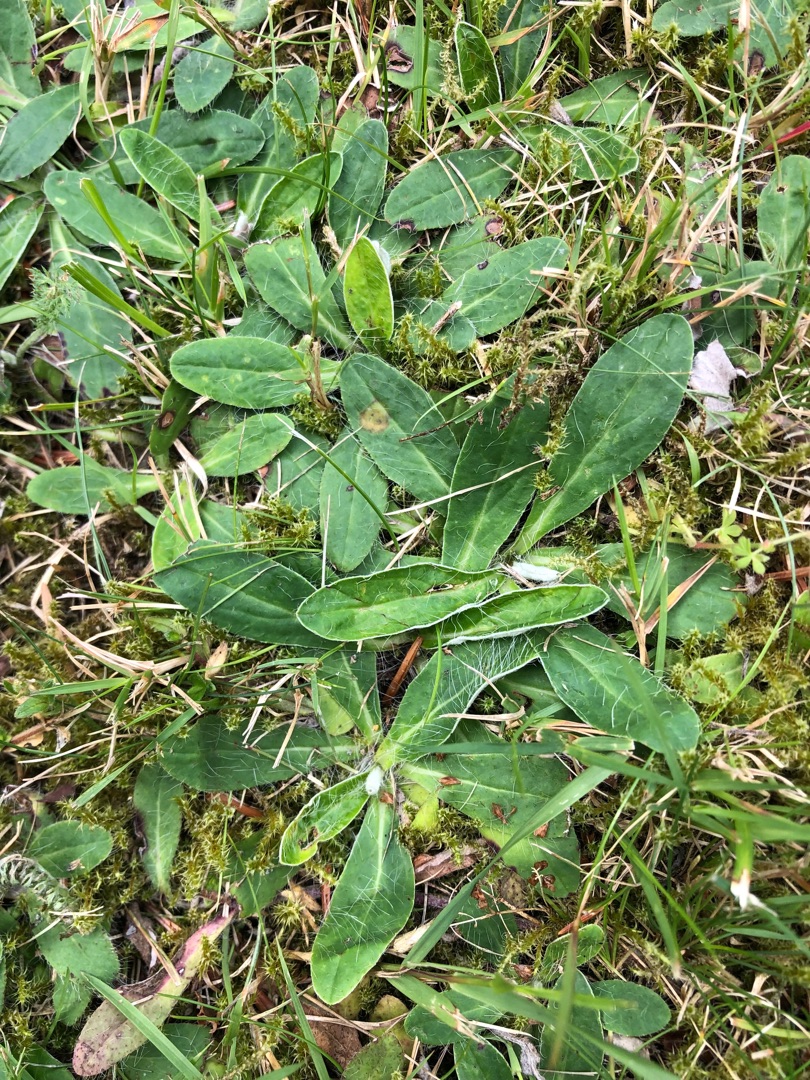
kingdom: Plantae
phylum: Tracheophyta
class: Magnoliopsida
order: Asterales
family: Asteraceae
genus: Pilosella
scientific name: Pilosella officinarum
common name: Håret høgeurt
